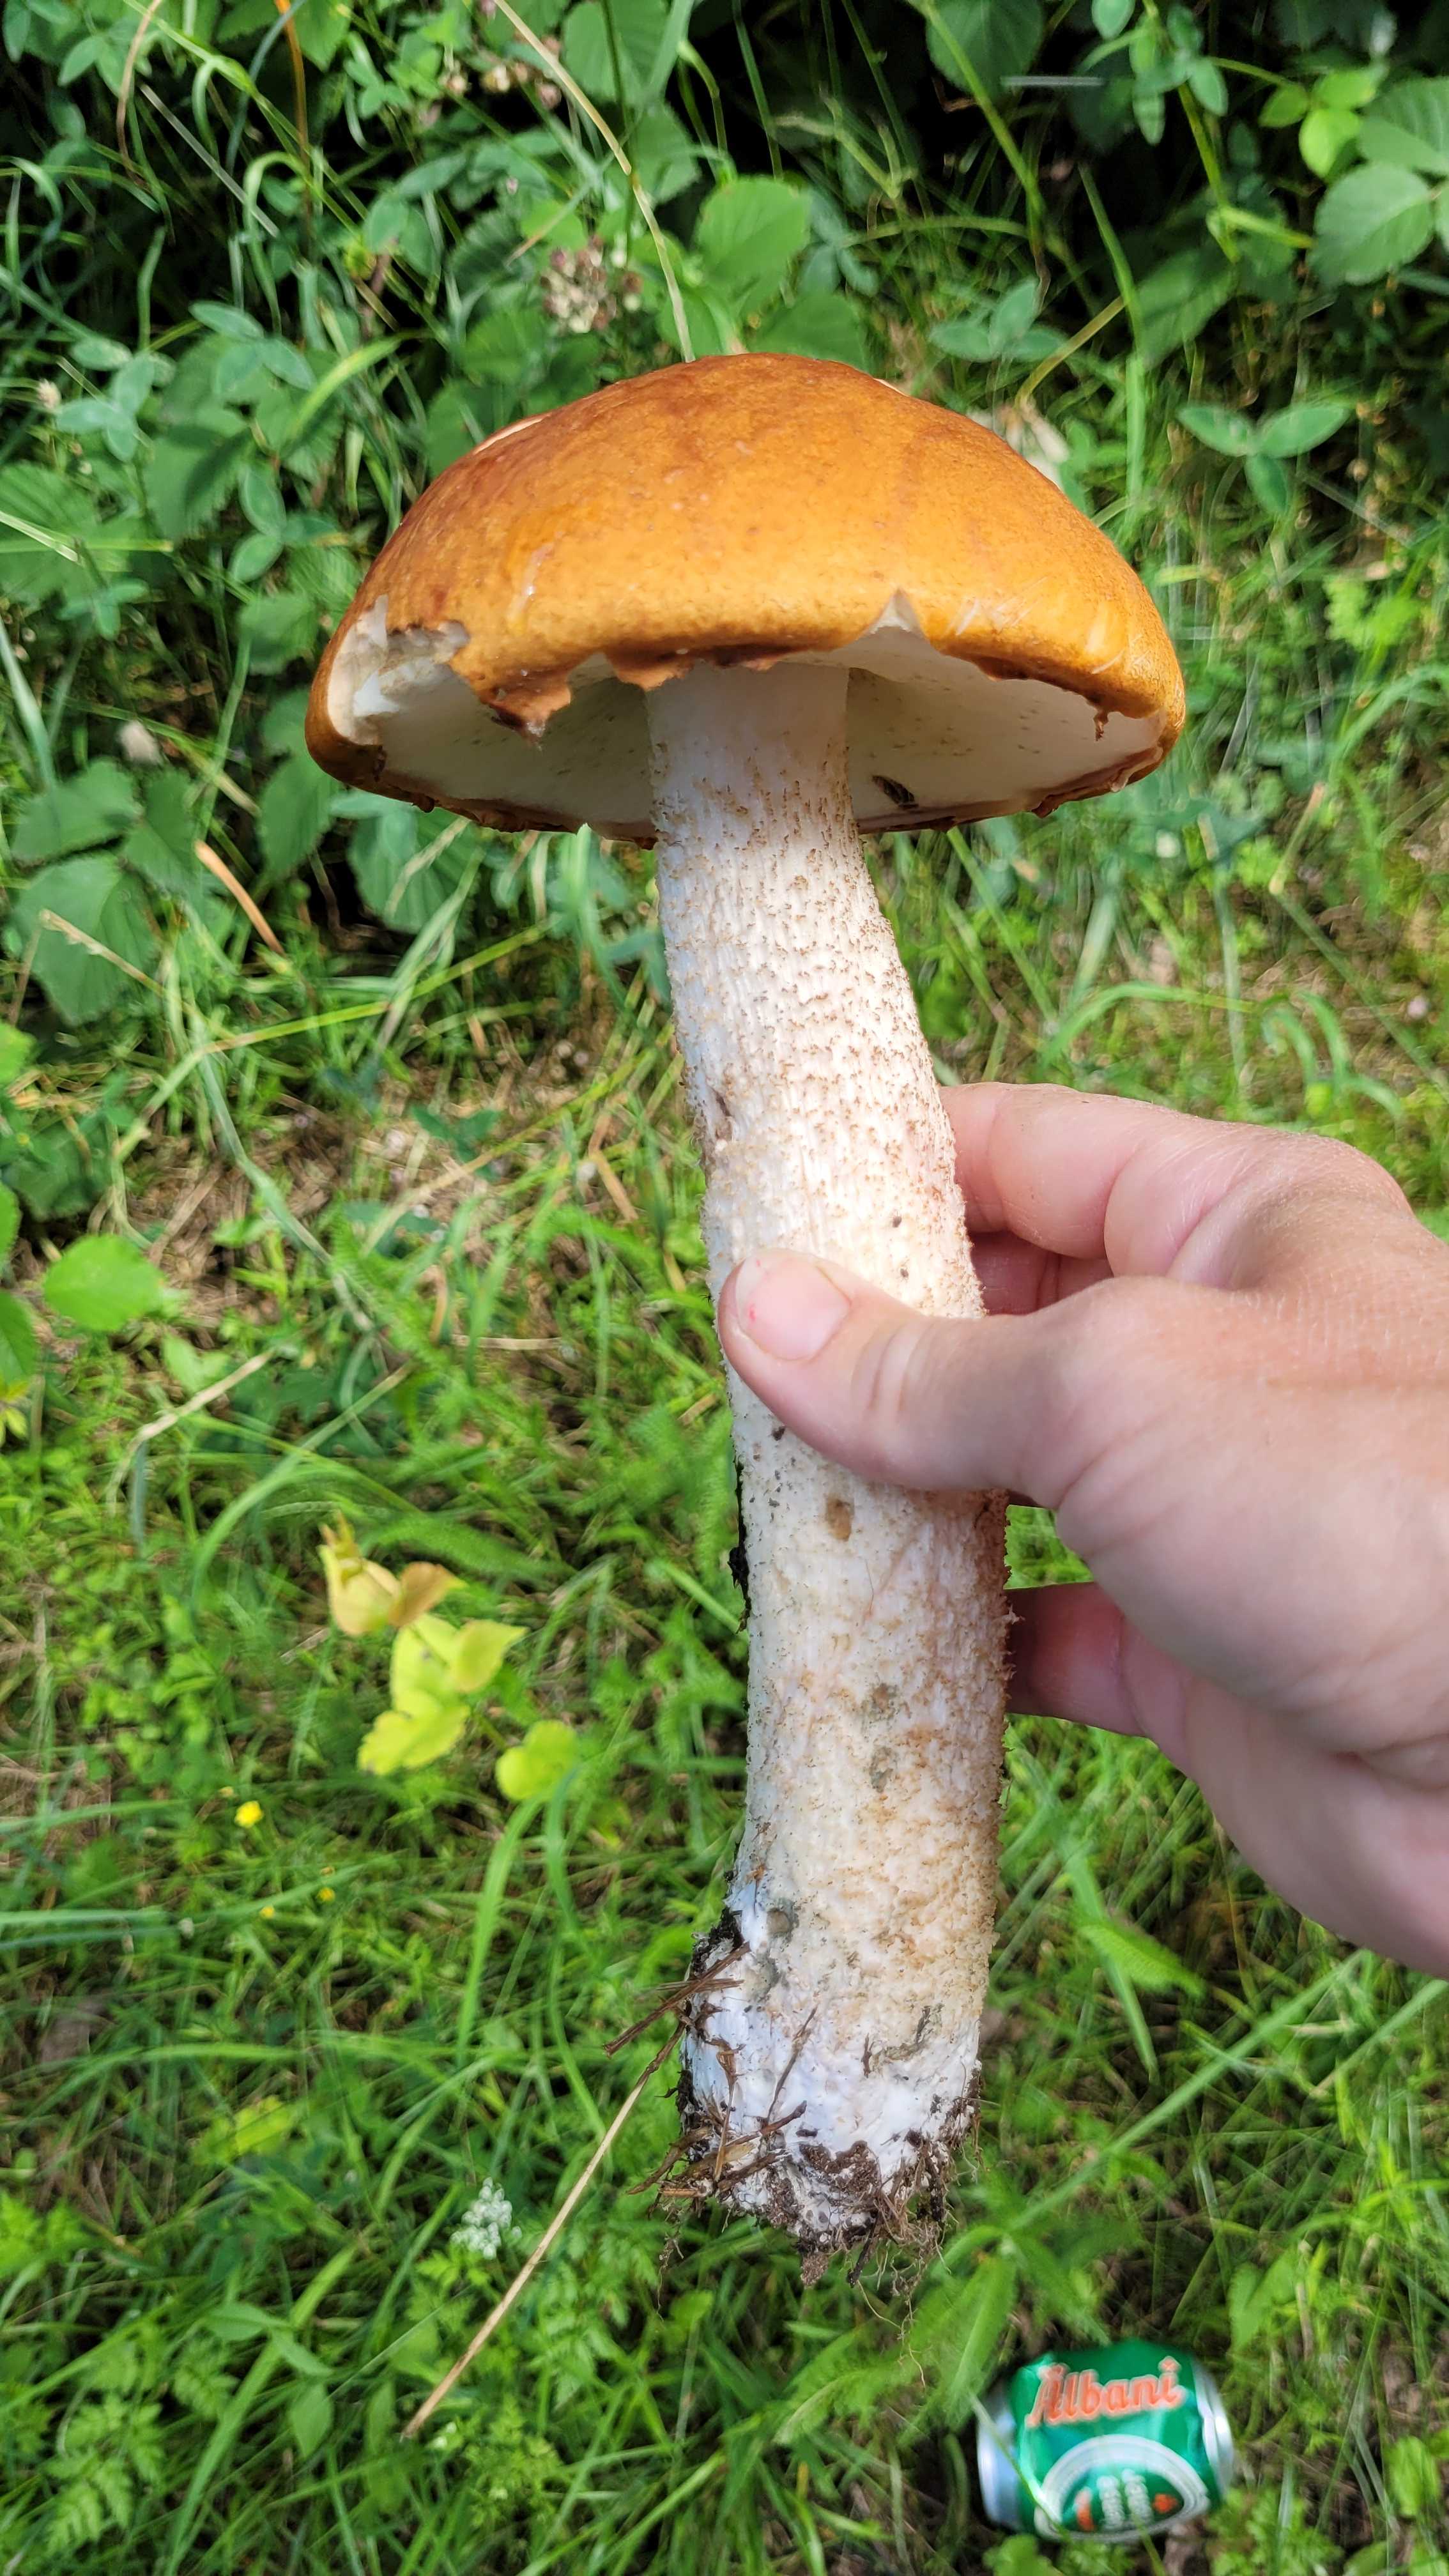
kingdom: Fungi
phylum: Basidiomycota
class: Agaricomycetes
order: Boletales
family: Boletaceae
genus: Leccinum
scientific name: Leccinum
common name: skælrørhat
